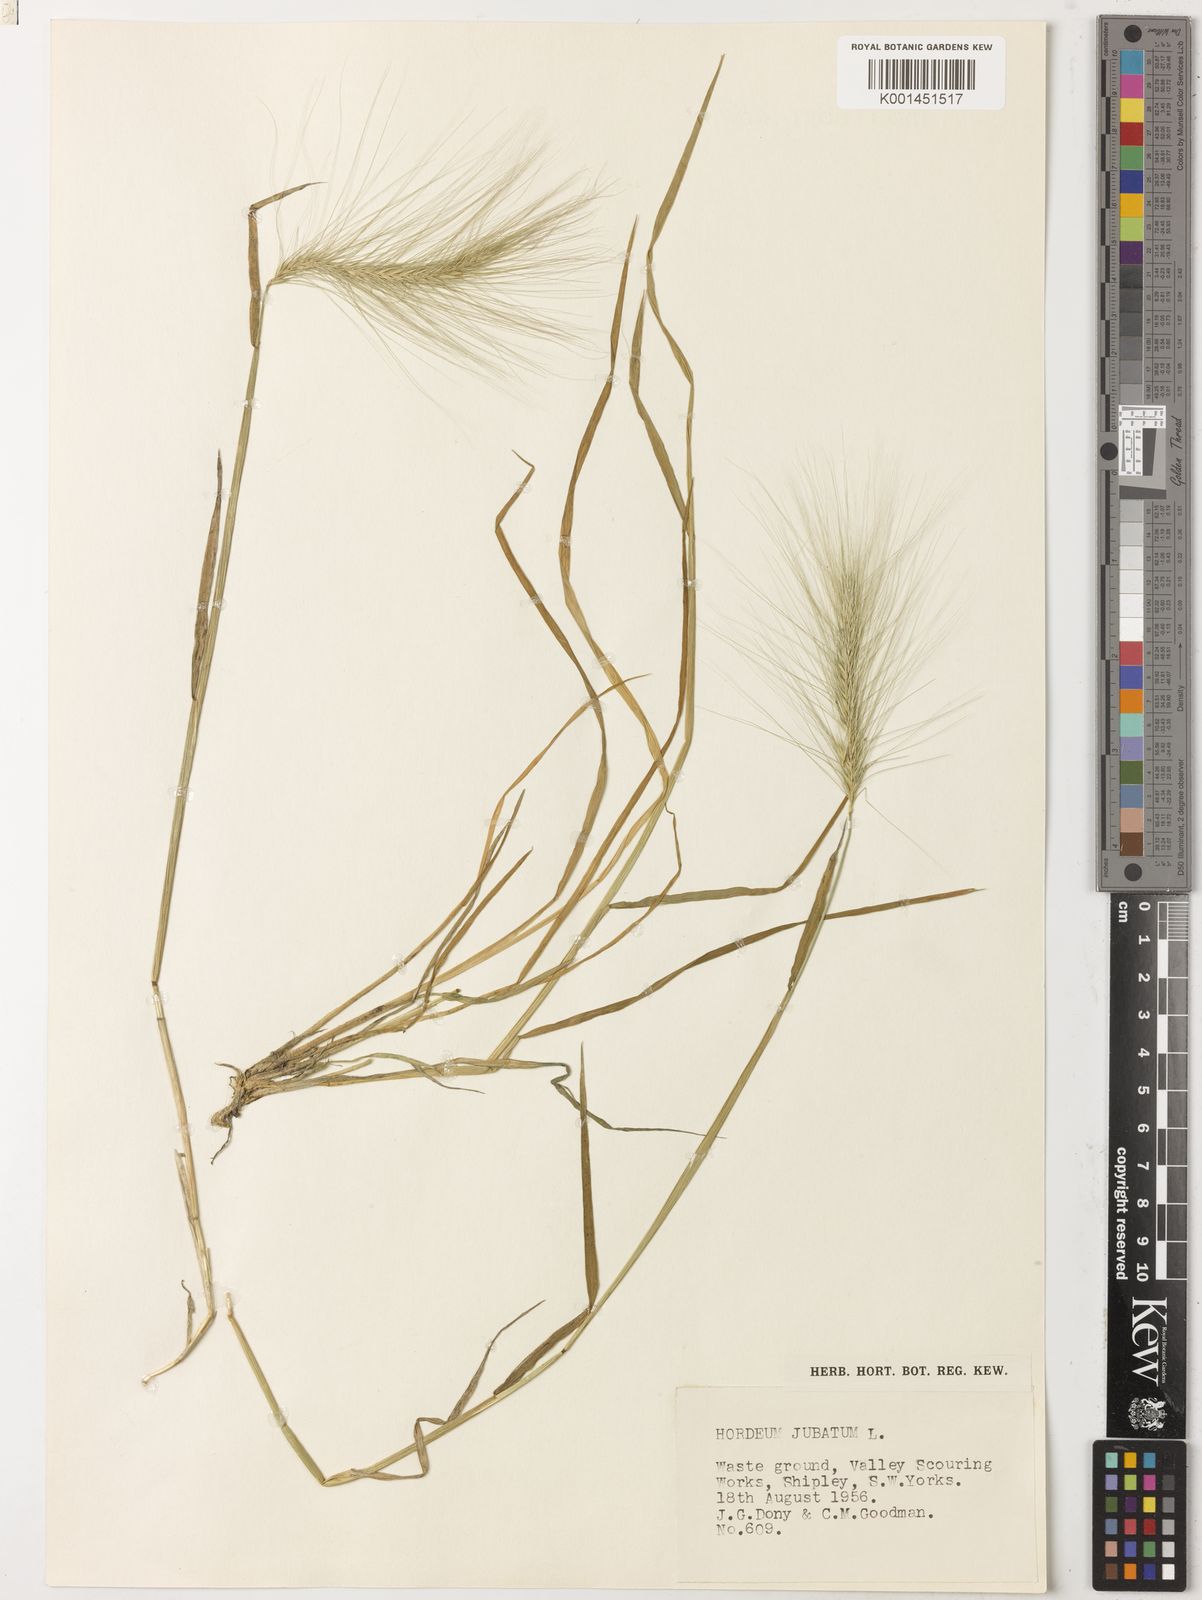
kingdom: Plantae
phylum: Tracheophyta
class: Liliopsida
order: Poales
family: Poaceae
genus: Hordeum
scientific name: Hordeum jubatum
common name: Foxtail barley
